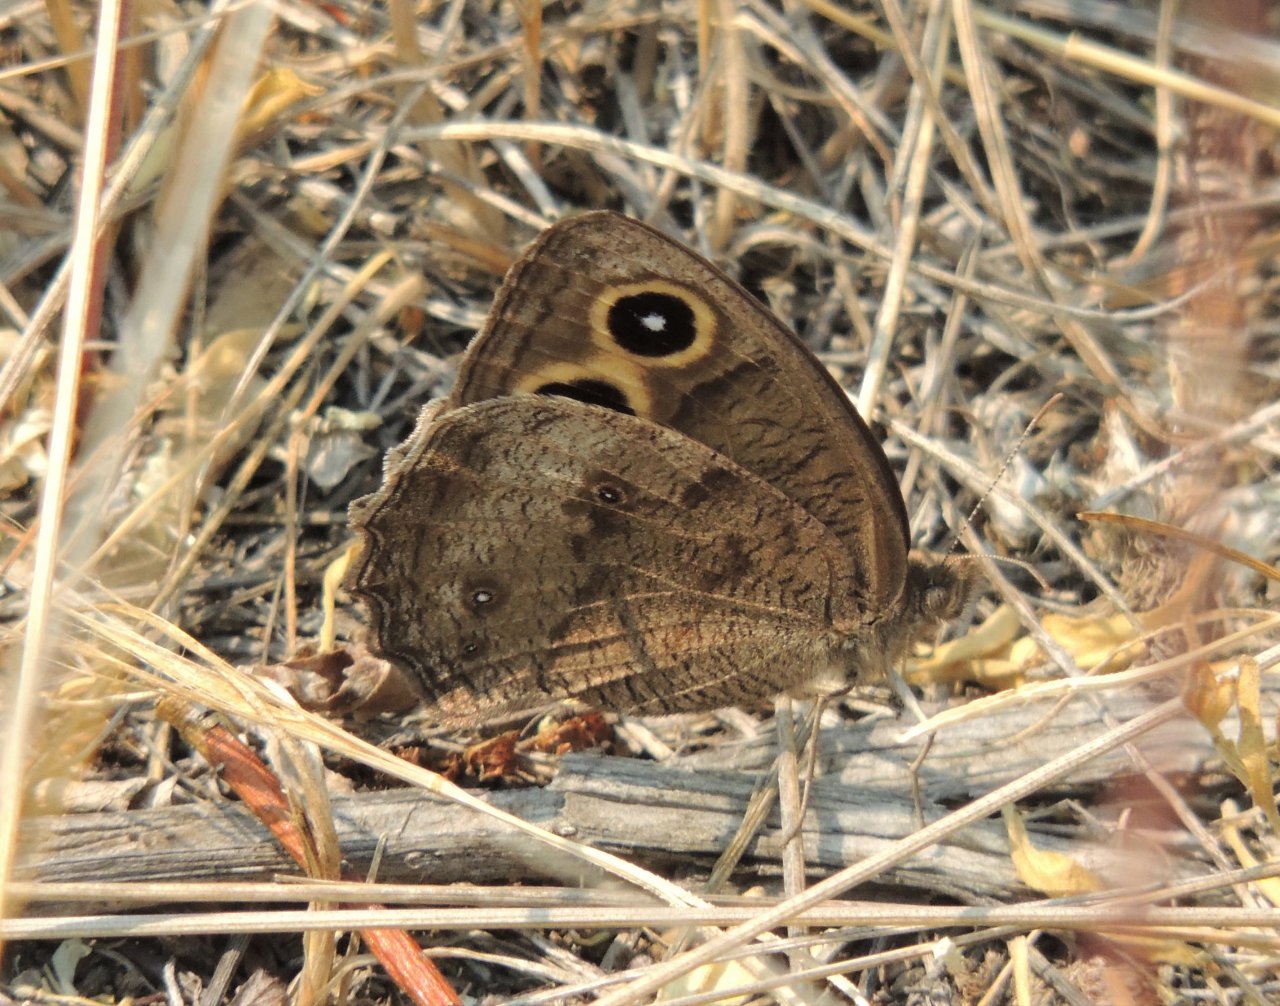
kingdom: Animalia
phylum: Arthropoda
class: Insecta
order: Lepidoptera
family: Nymphalidae
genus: Cercyonis
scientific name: Cercyonis pegala
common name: Common Wood-Nymph
